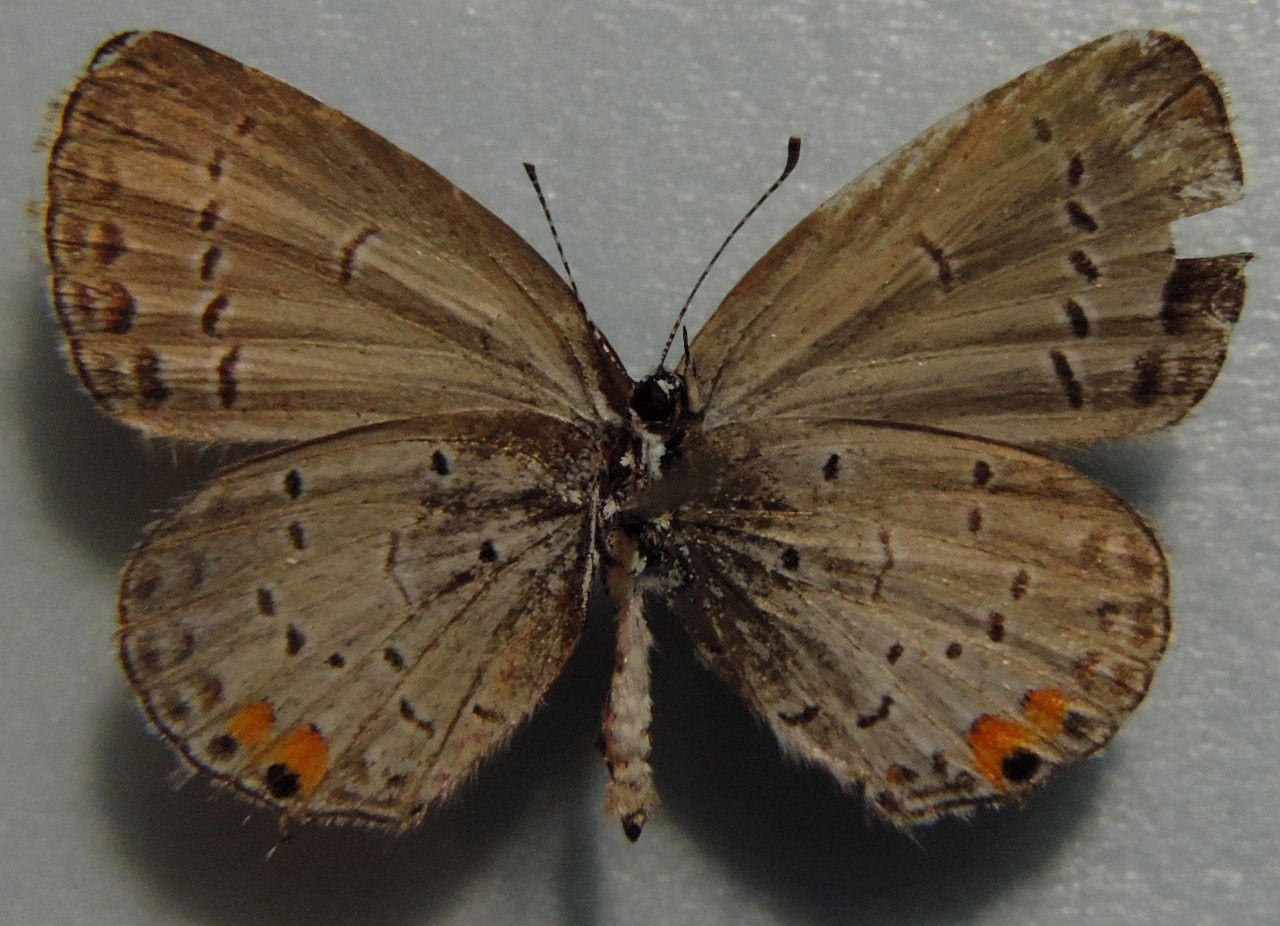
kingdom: Animalia
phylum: Arthropoda
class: Insecta
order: Lepidoptera
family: Lycaenidae
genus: Elkalyce
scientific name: Elkalyce comyntas
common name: Eastern Tailed-Blue
